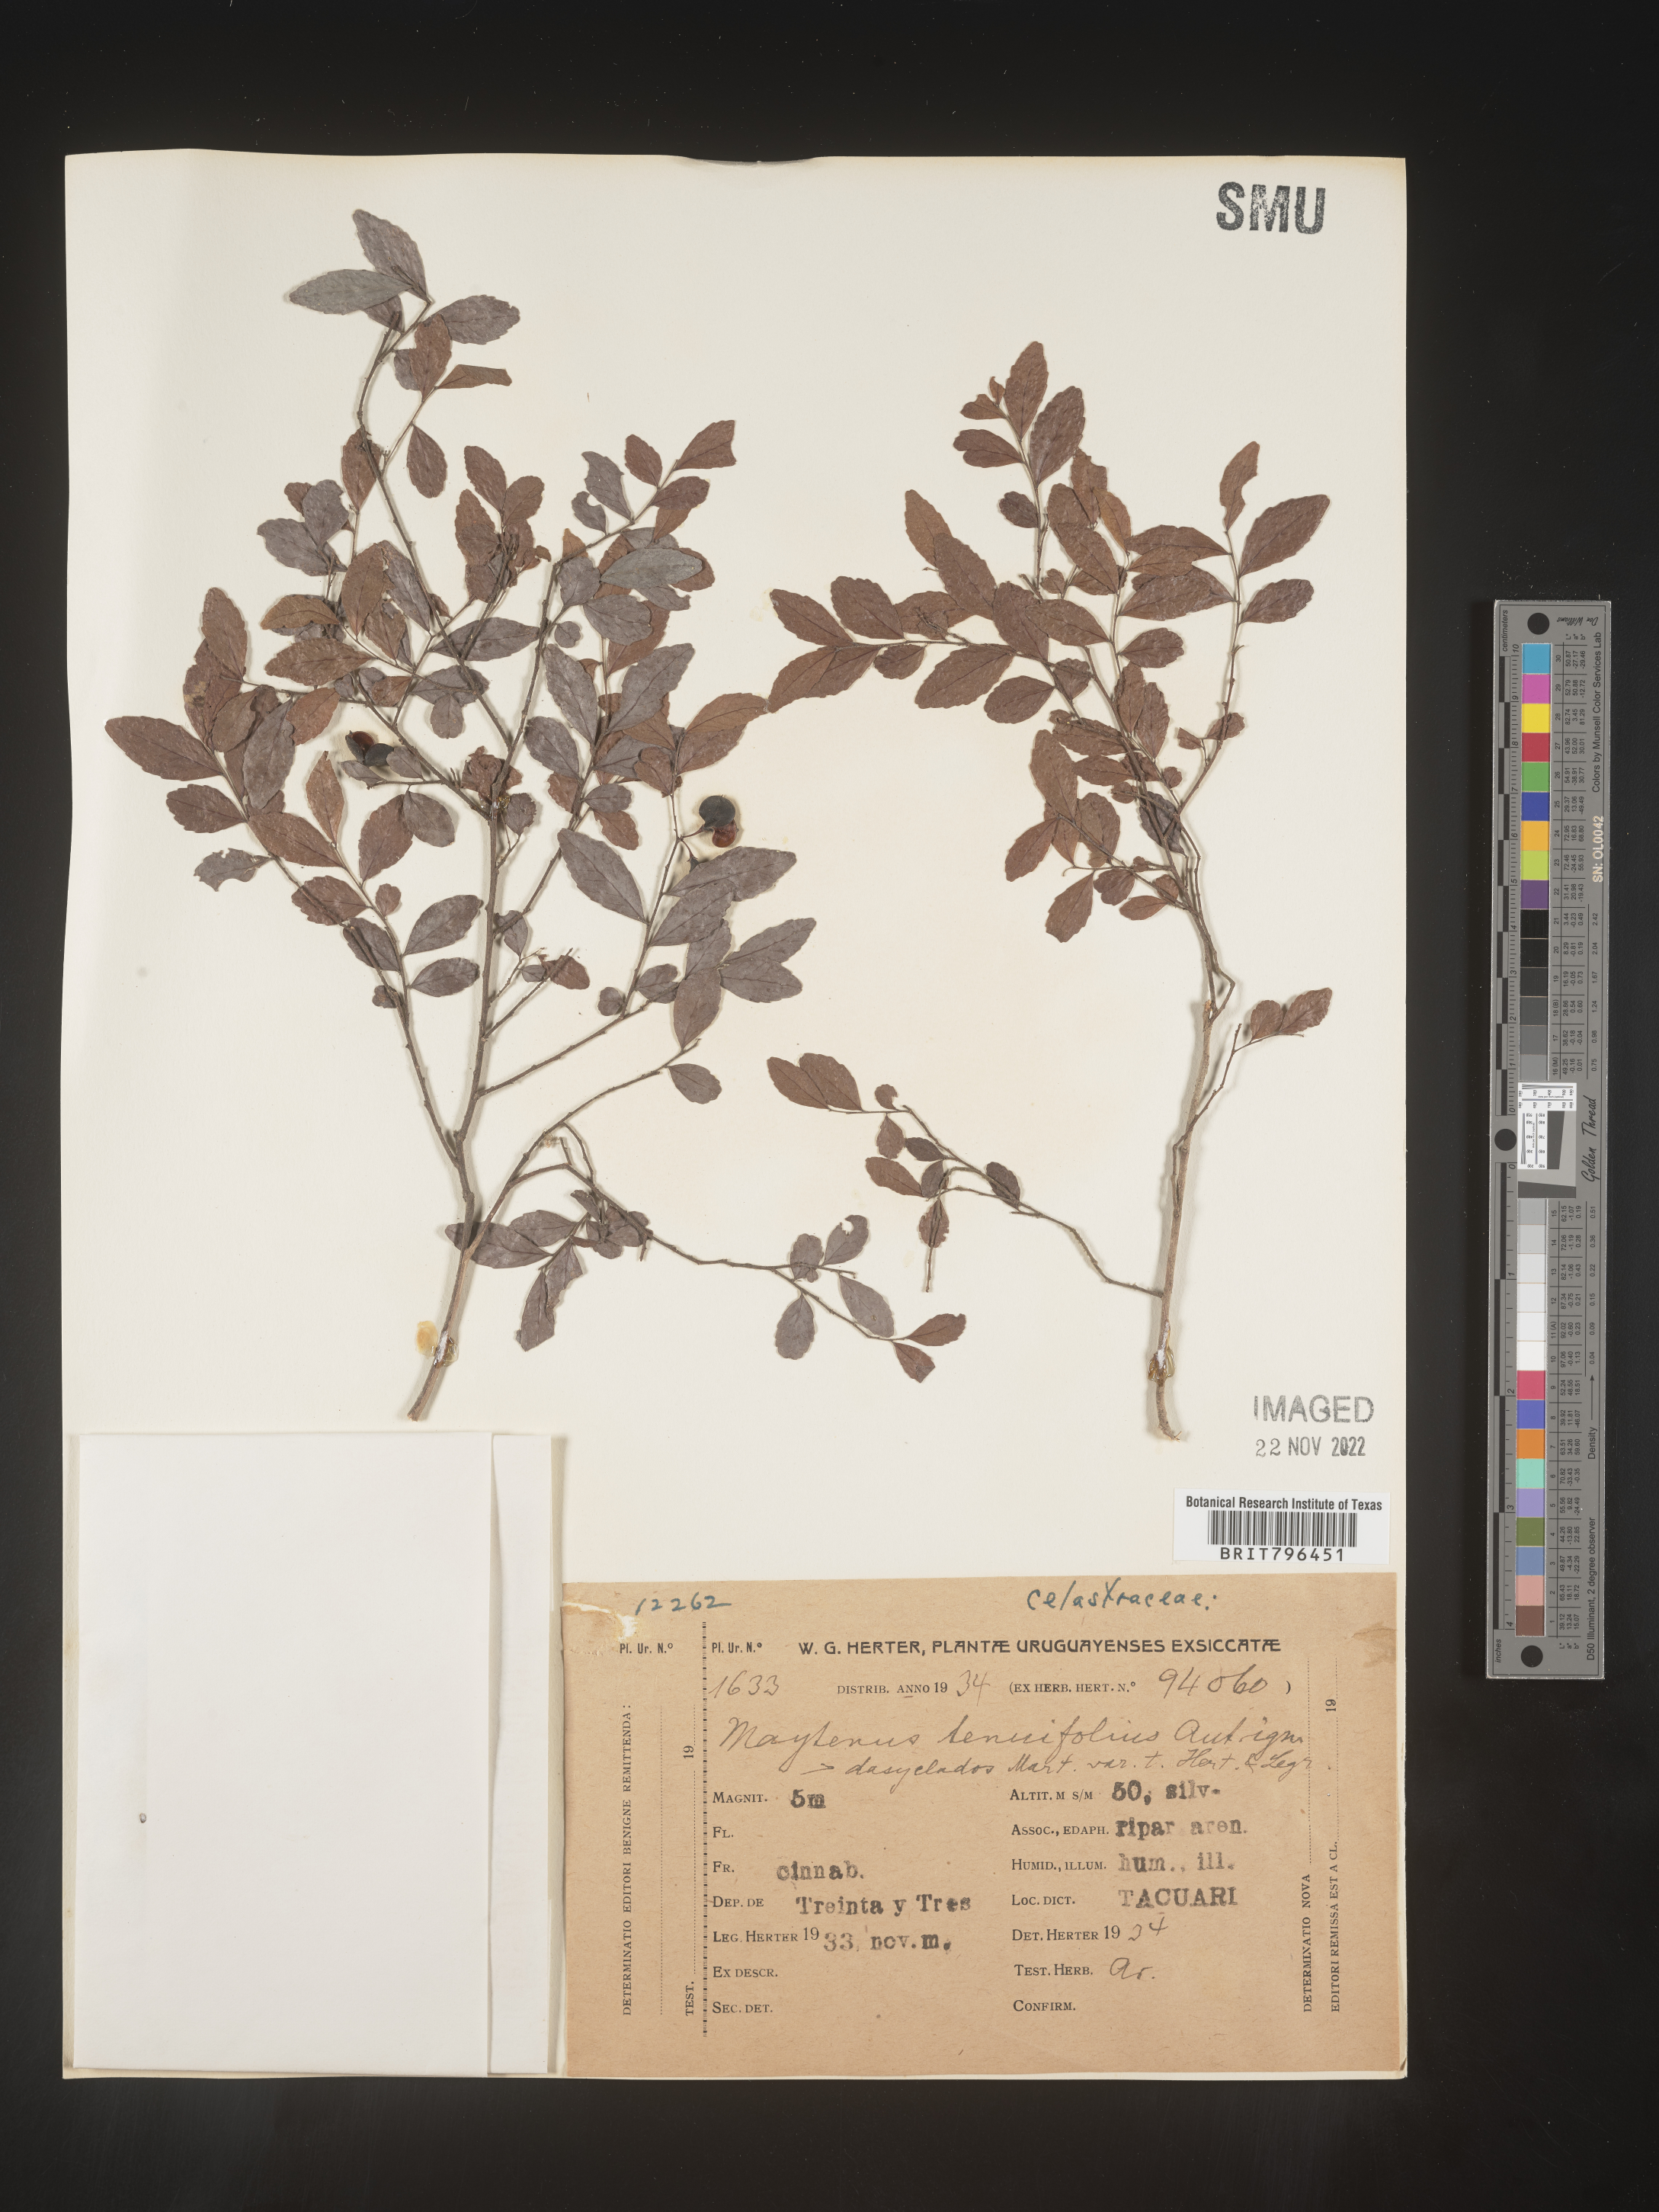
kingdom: Plantae
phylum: Tracheophyta
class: Magnoliopsida
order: Celastrales
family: Celastraceae
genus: Maytenus
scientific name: Maytenus
